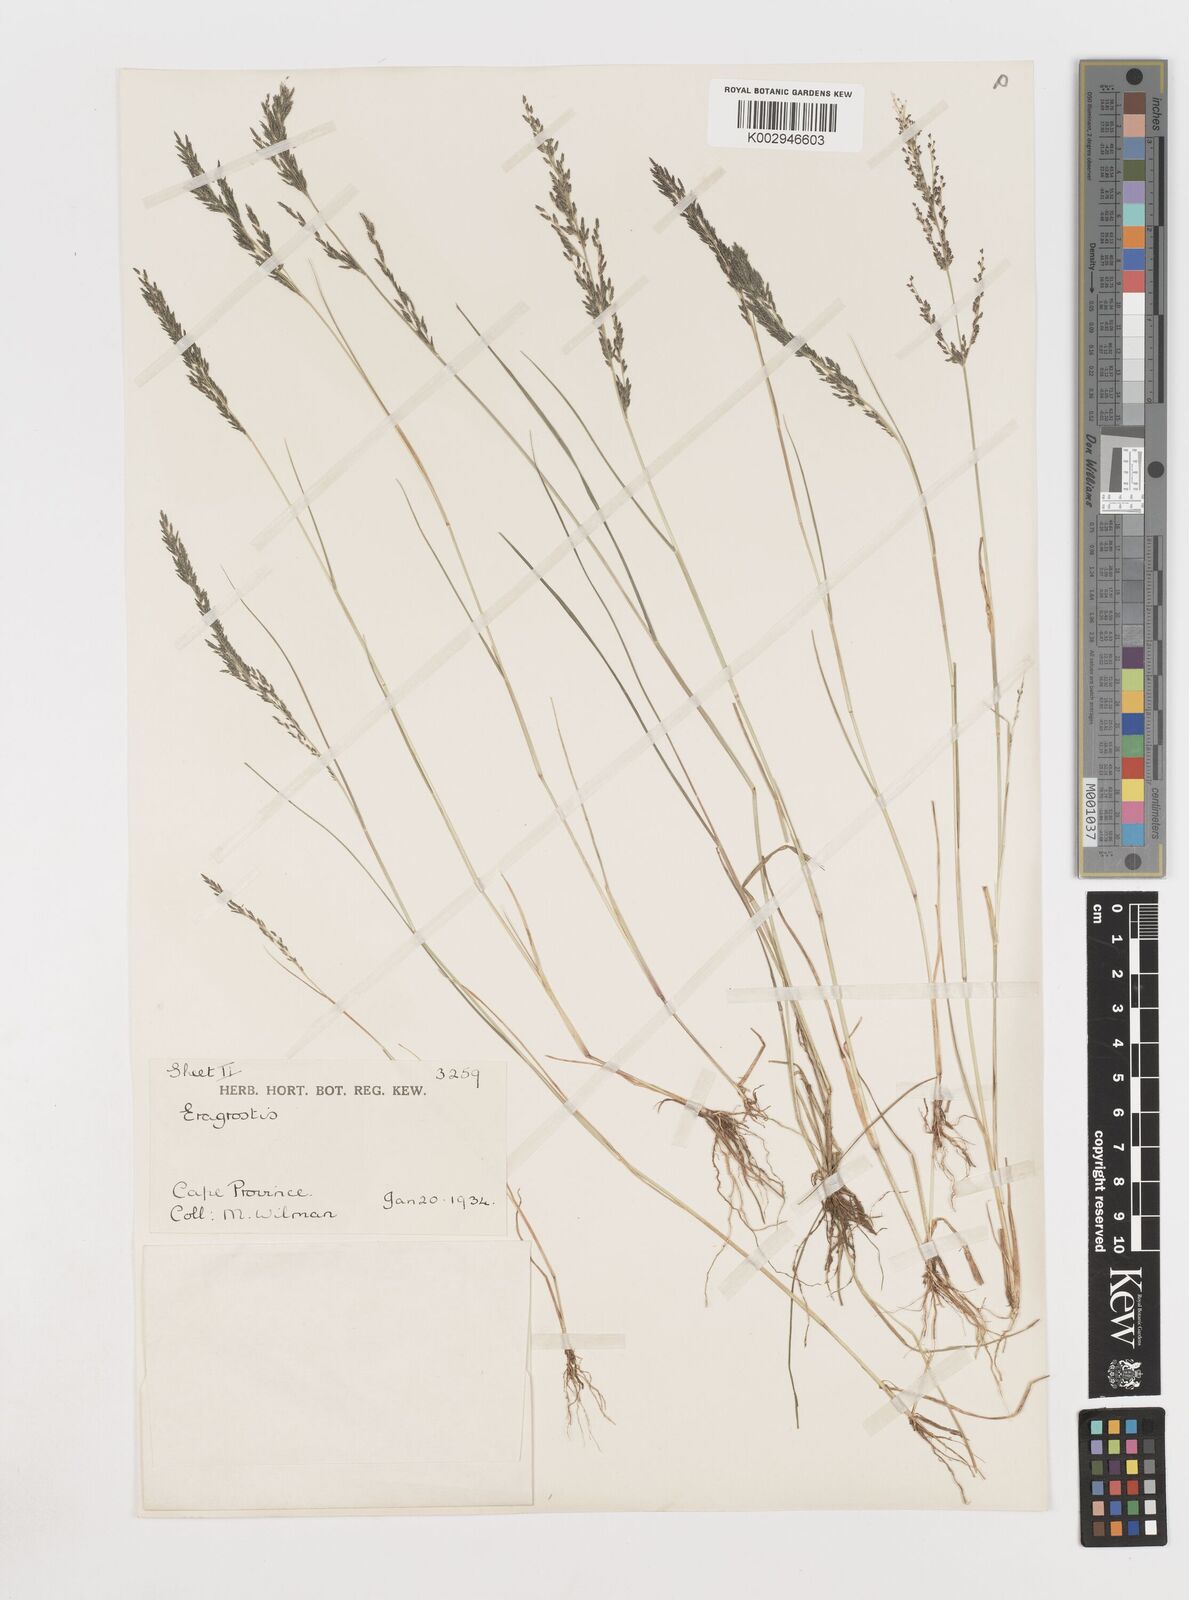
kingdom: Plantae
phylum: Tracheophyta
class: Liliopsida
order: Poales
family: Poaceae
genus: Eragrostis
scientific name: Eragrostis homomalla
